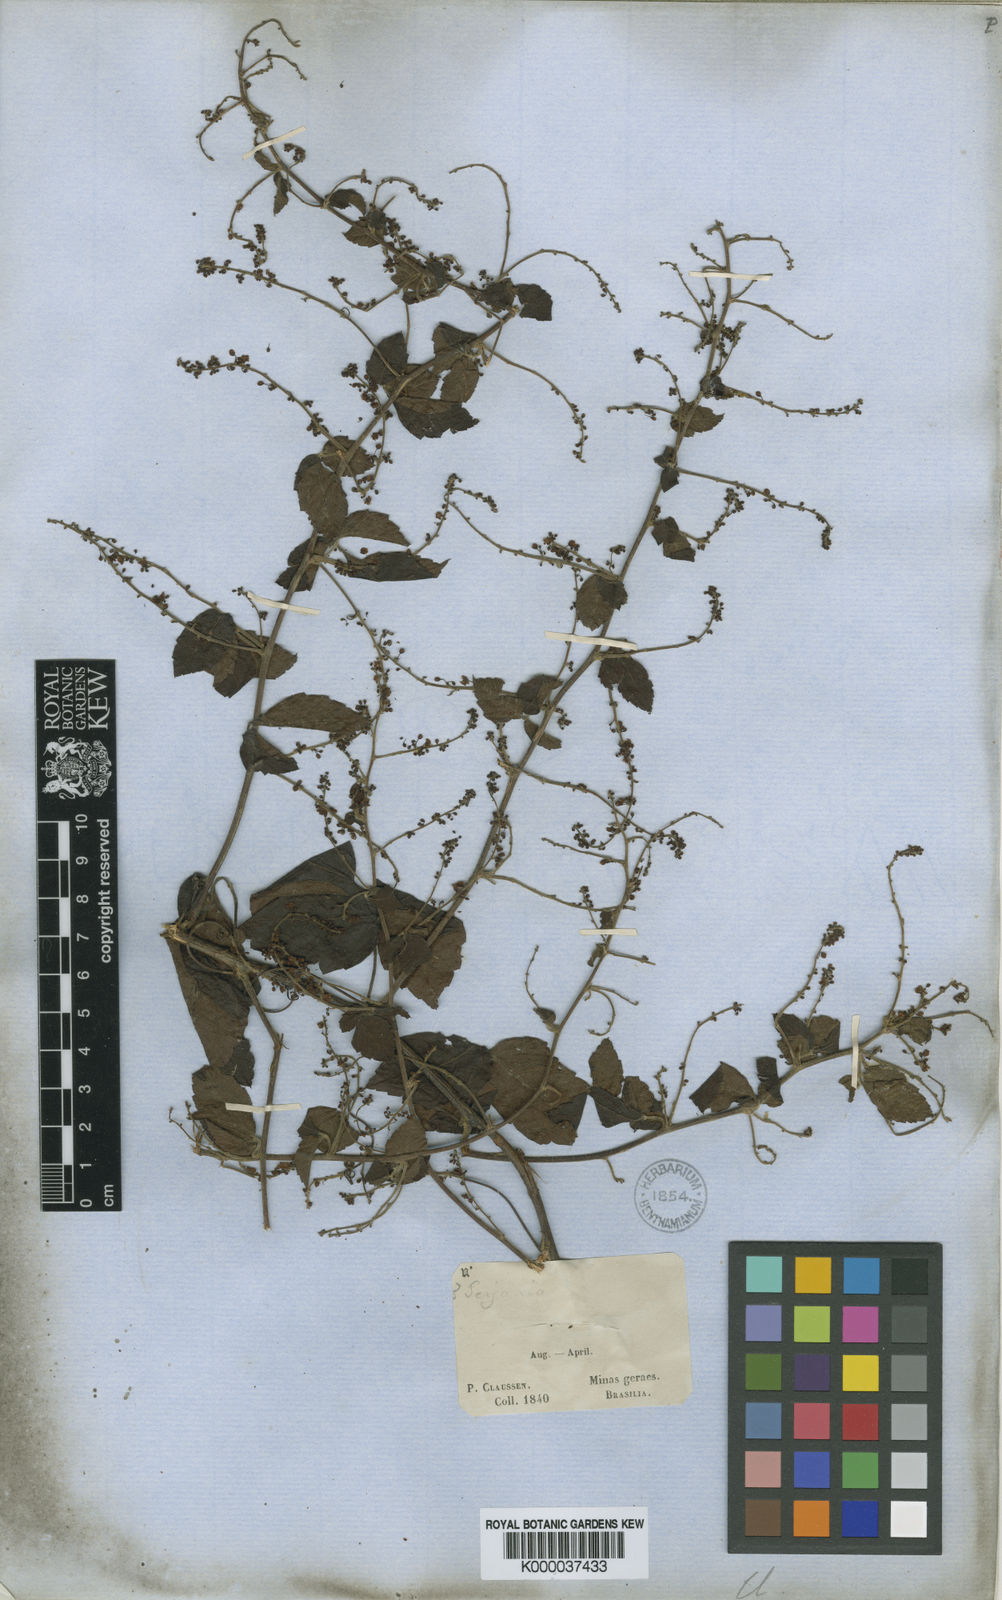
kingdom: Plantae
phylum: Tracheophyta
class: Magnoliopsida
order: Sapindales
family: Sapindaceae
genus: Urvillea
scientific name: Urvillea laevis
